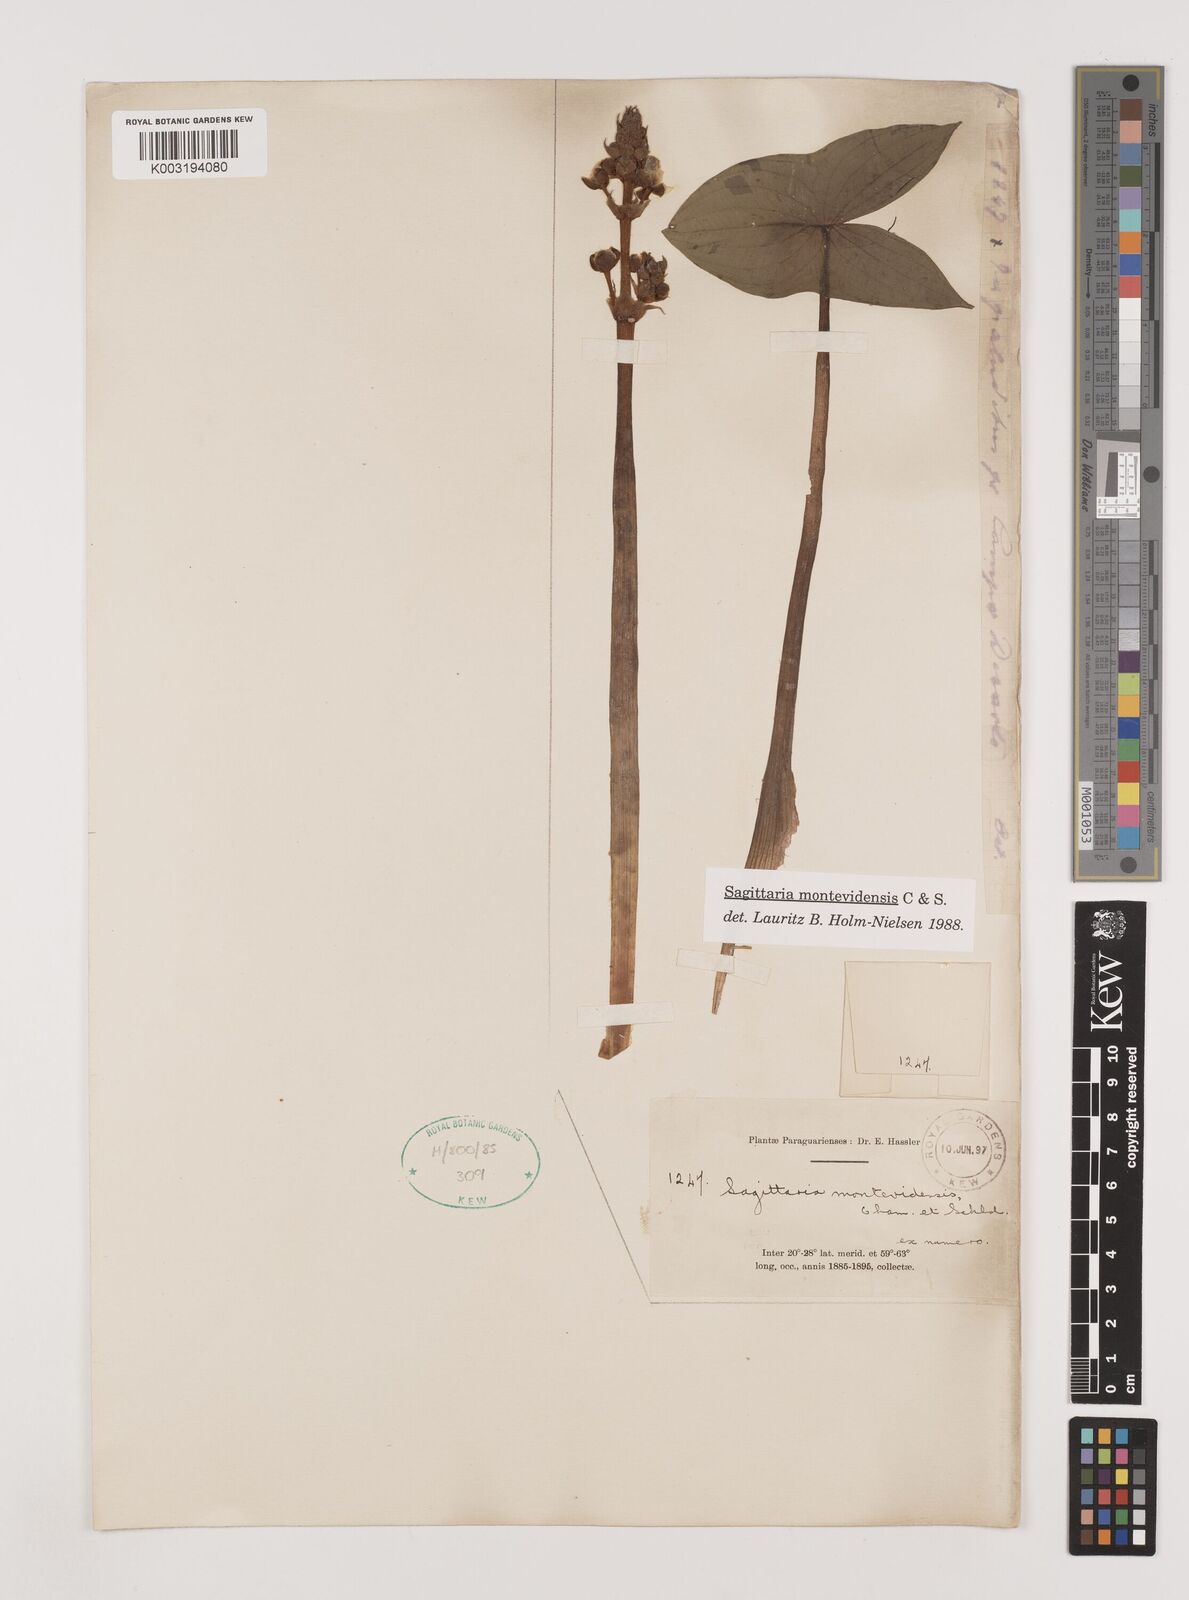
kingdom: Plantae
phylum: Tracheophyta
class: Liliopsida
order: Alismatales
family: Alismataceae
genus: Sagittaria
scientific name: Sagittaria montevidensis
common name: Giant arrowhead
